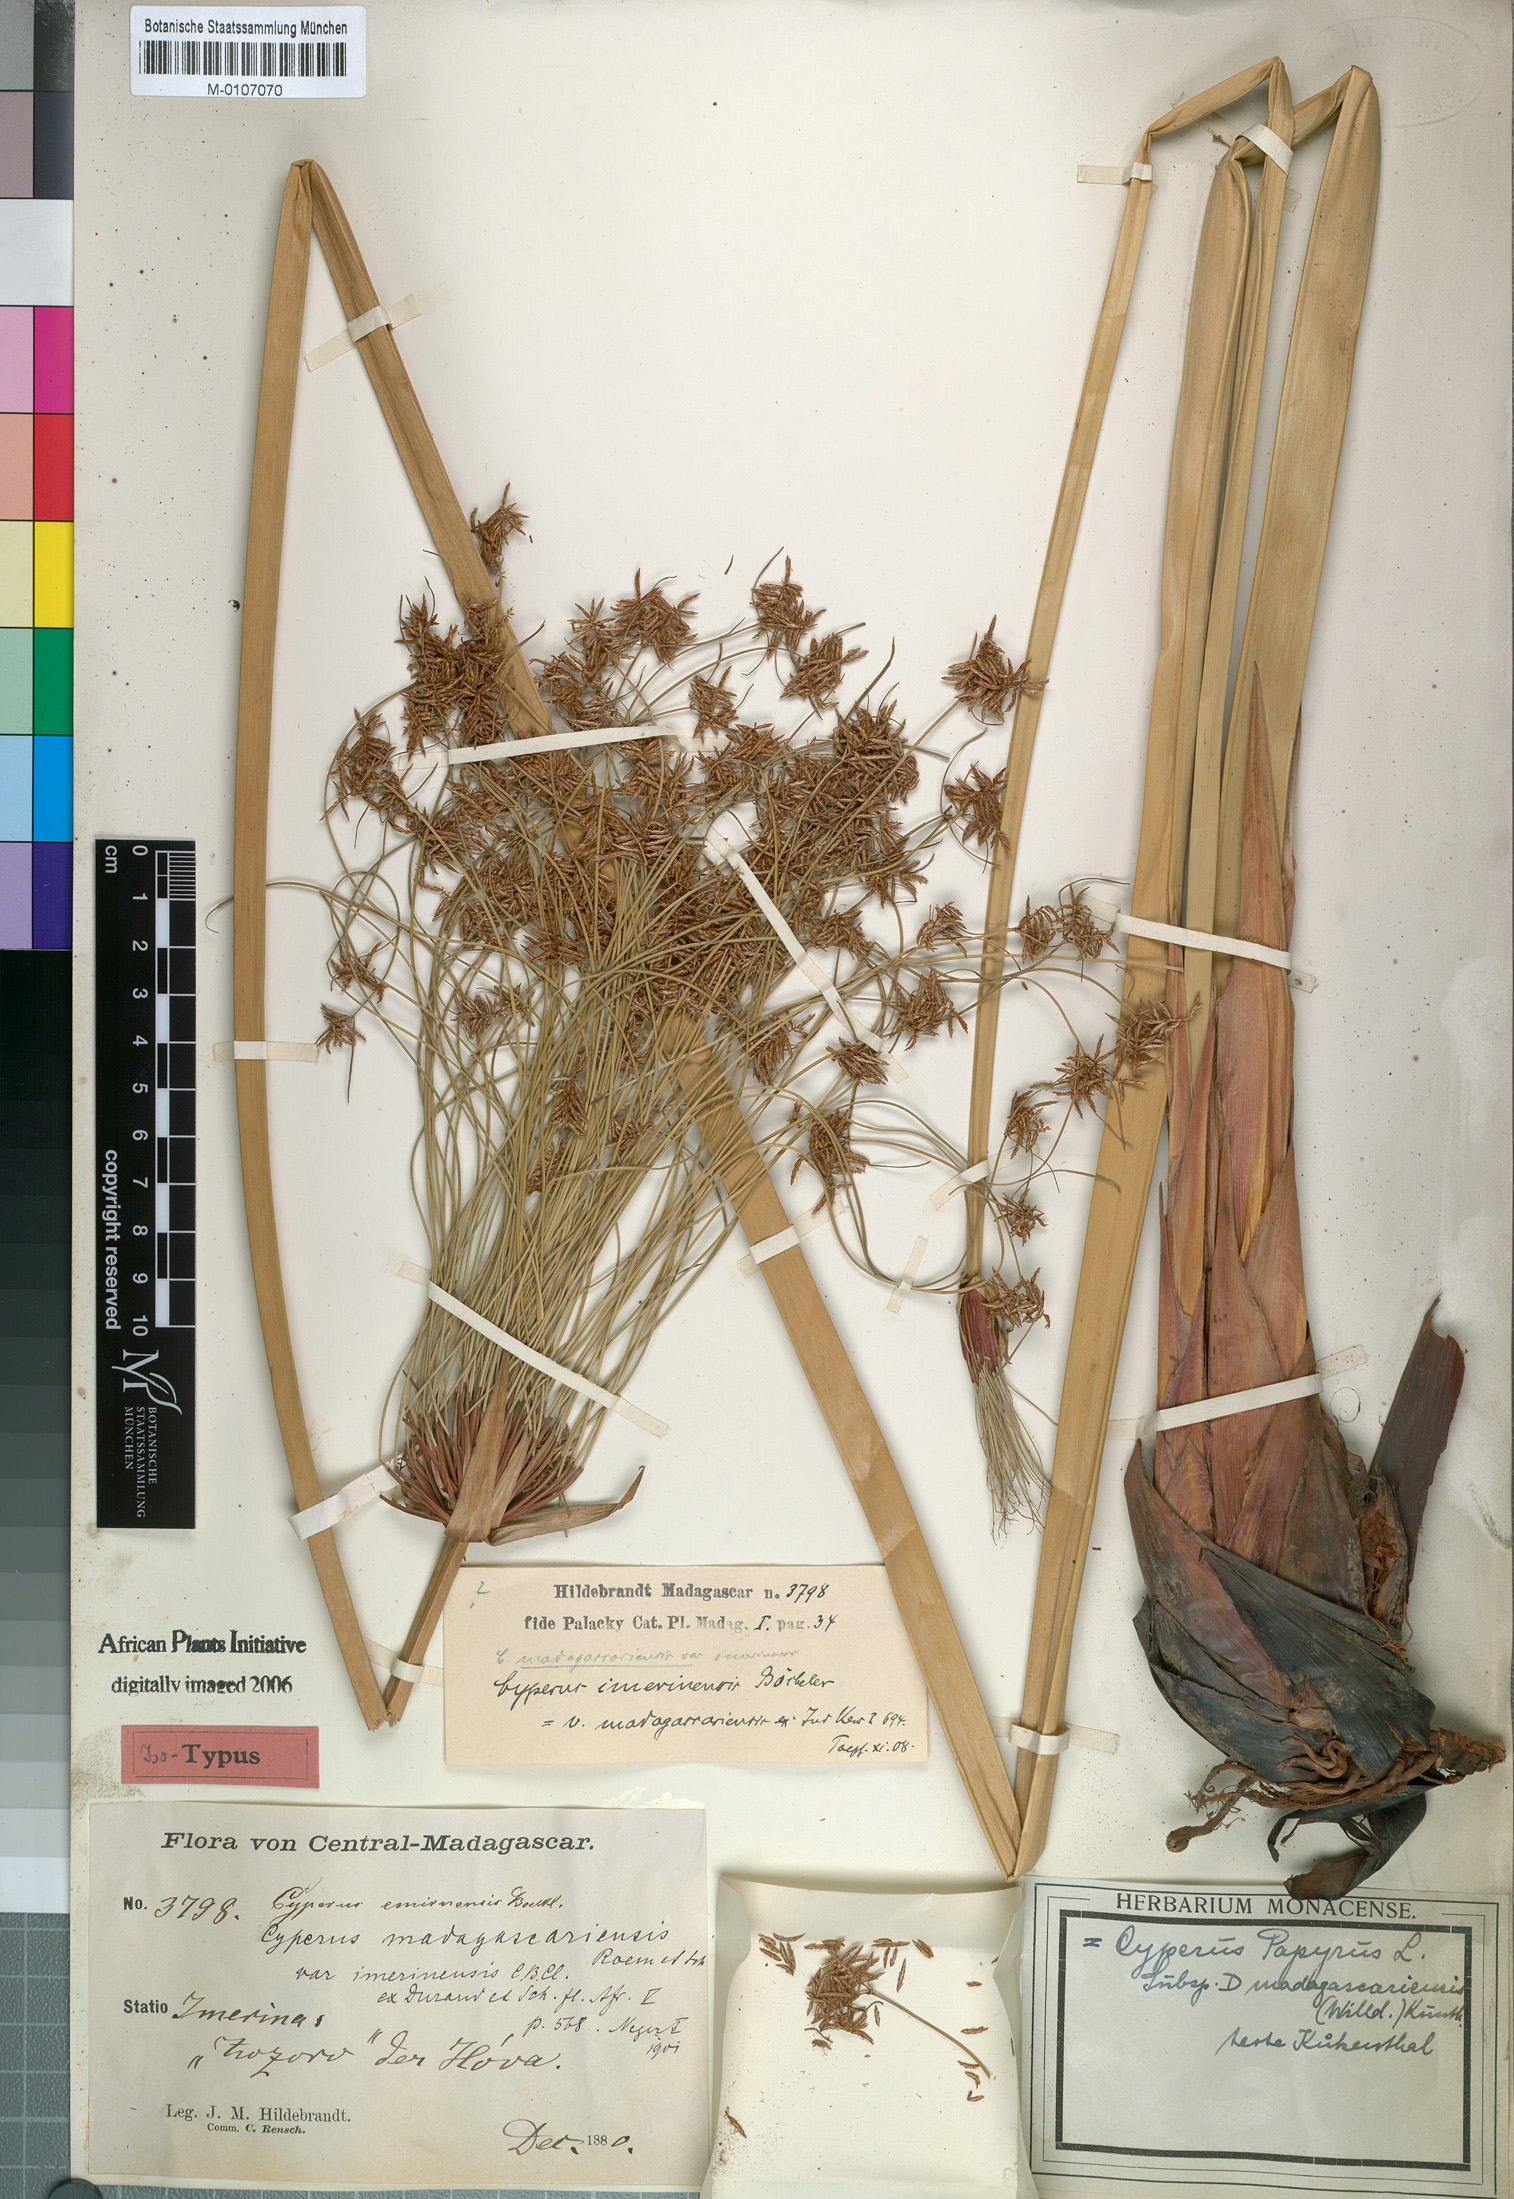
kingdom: Plantae
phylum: Tracheophyta
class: Liliopsida
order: Poales
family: Cyperaceae
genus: Cyperus
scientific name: Cyperus papyrus
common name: Papyrus
